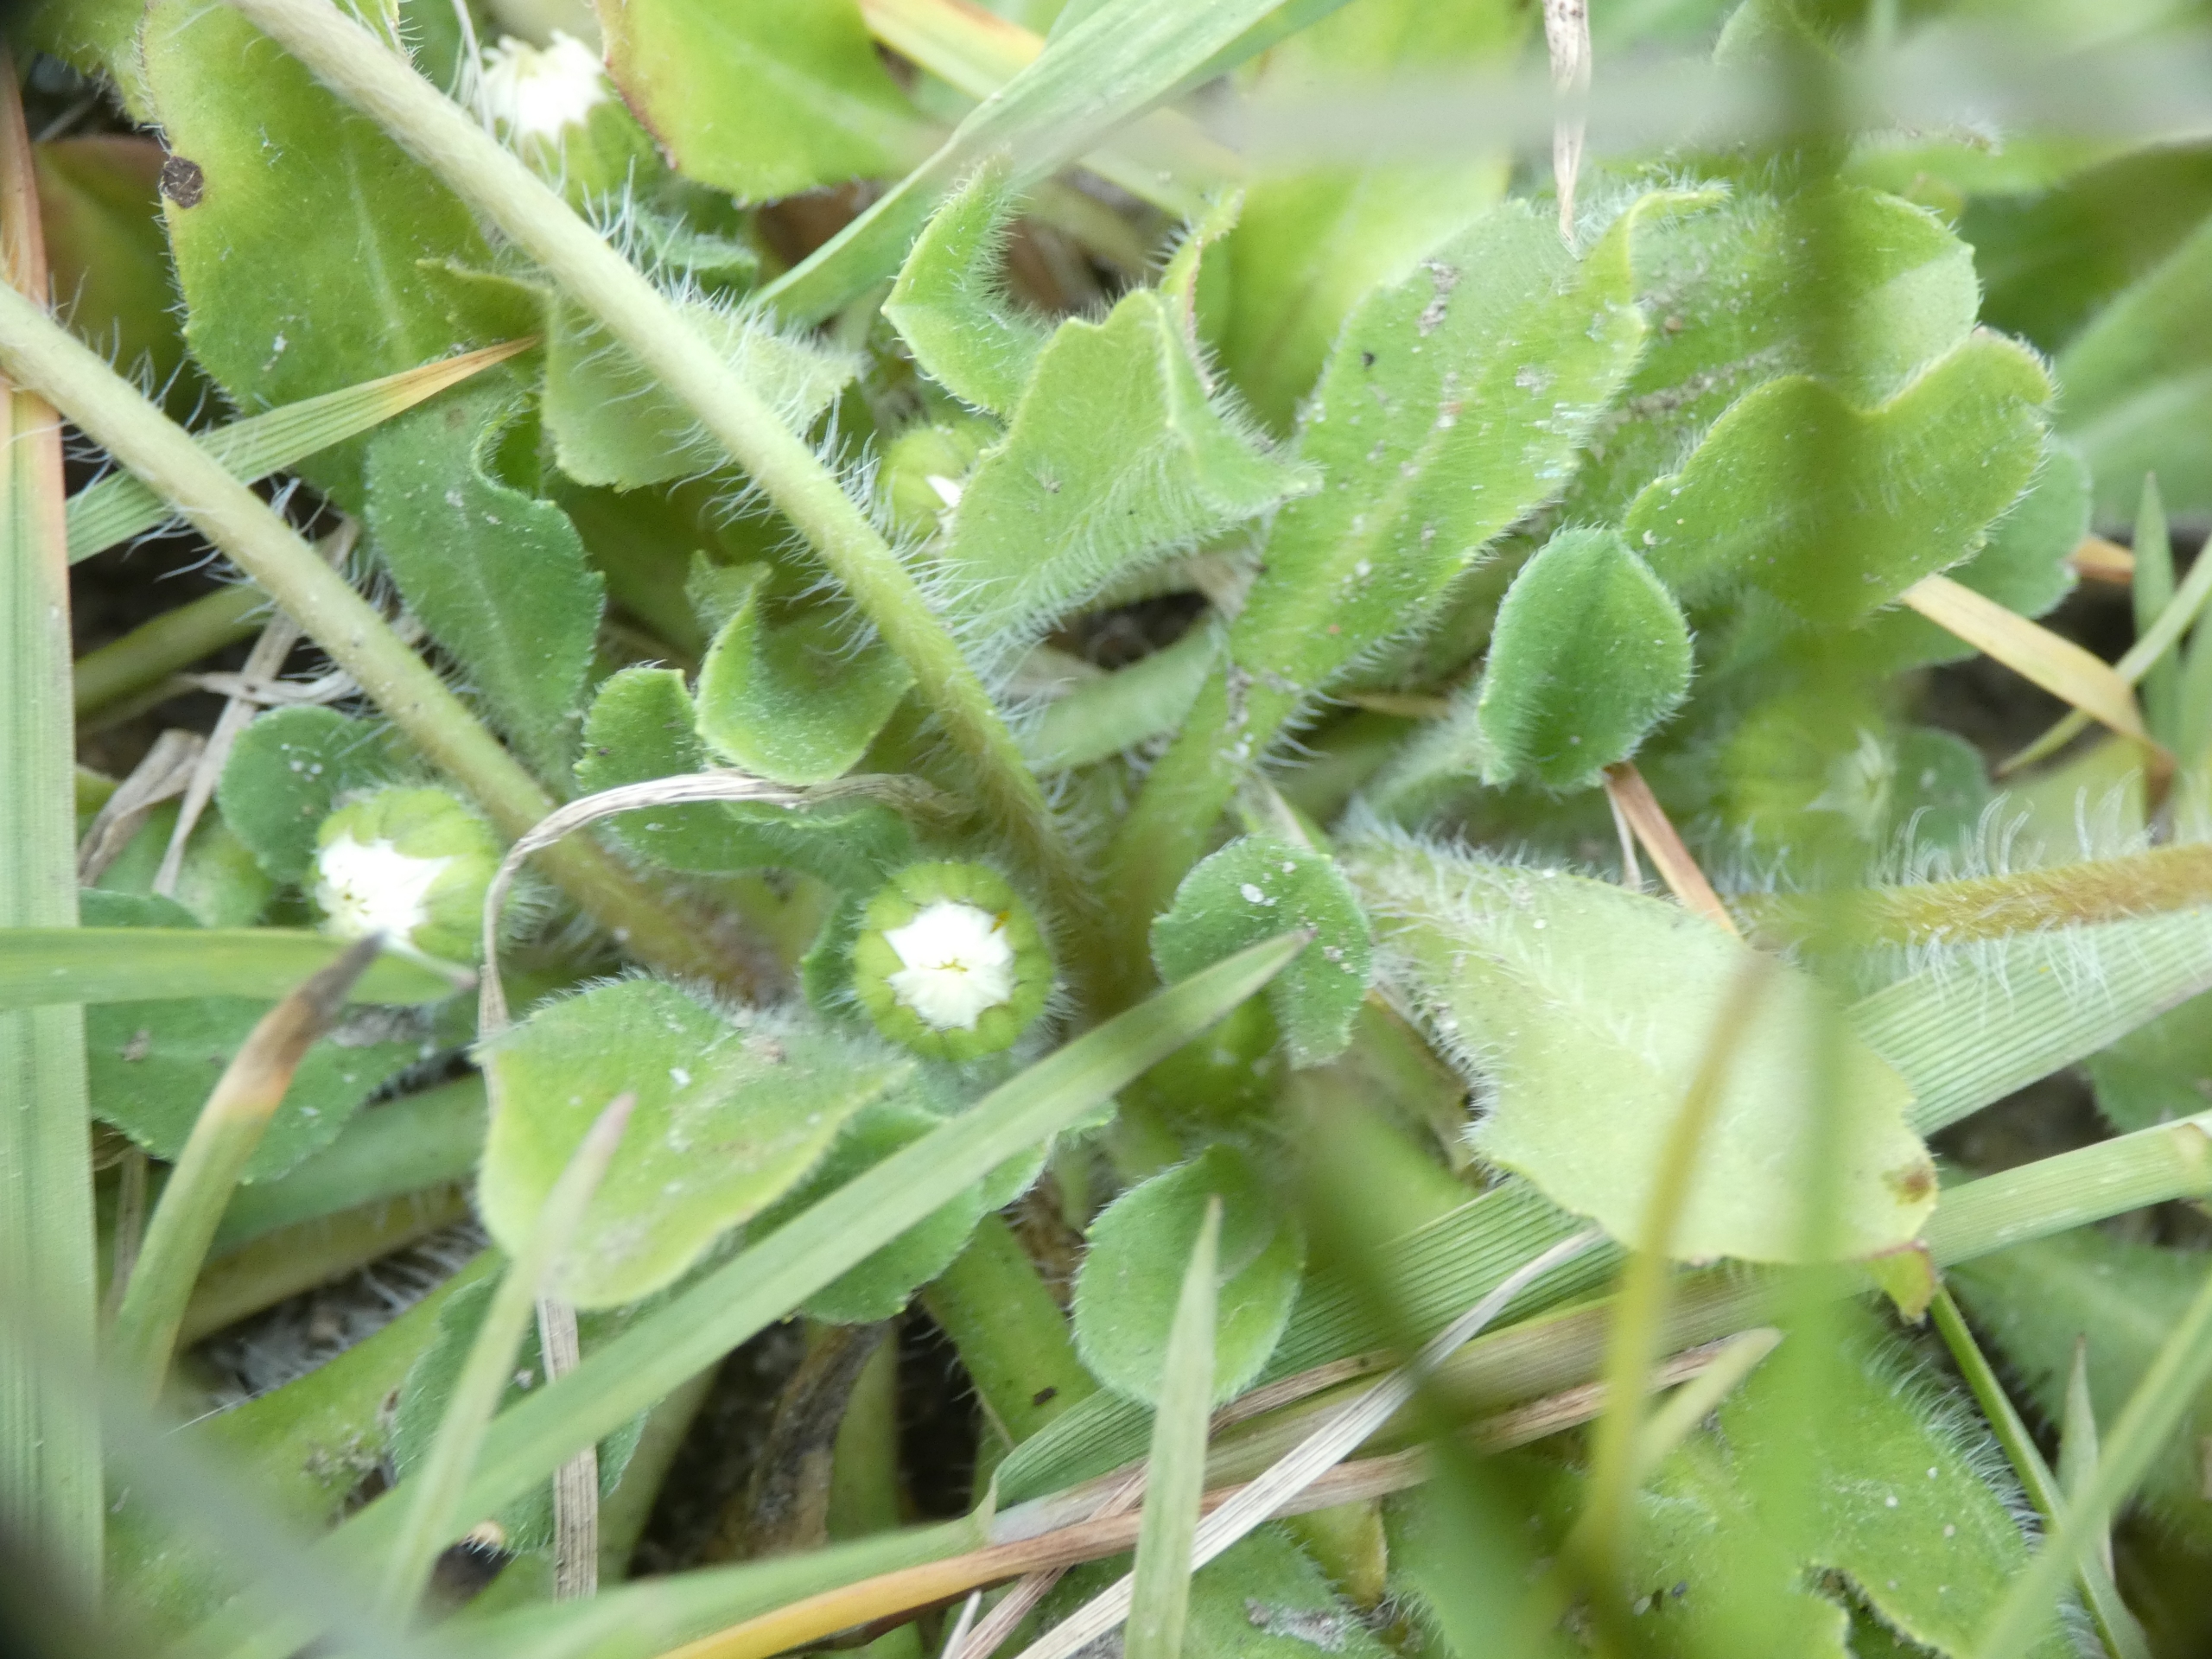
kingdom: Plantae
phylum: Tracheophyta
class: Magnoliopsida
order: Asterales
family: Asteraceae
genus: Bellis
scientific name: Bellis perennis
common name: Tusindfryd
